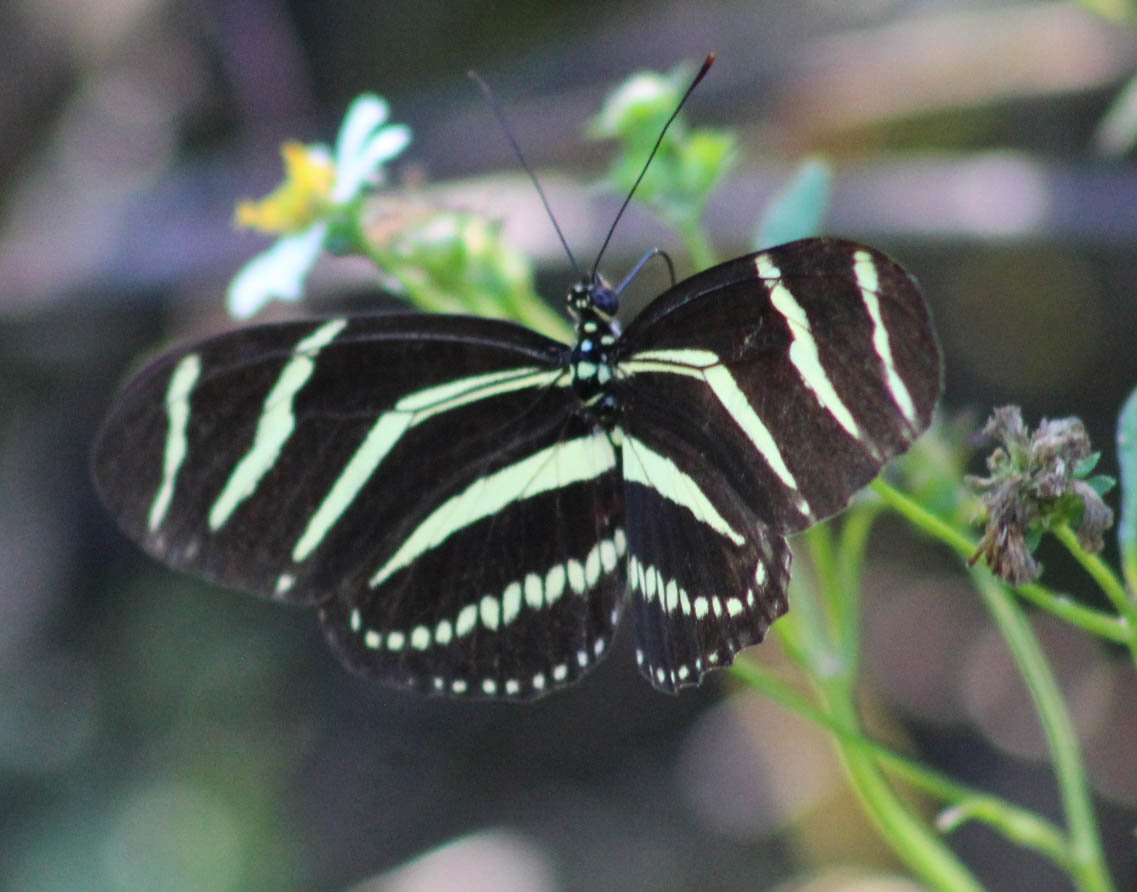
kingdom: Animalia
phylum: Arthropoda
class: Insecta
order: Lepidoptera
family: Nymphalidae
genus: Heliconius
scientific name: Heliconius charithonia
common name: Zebra Longwing
